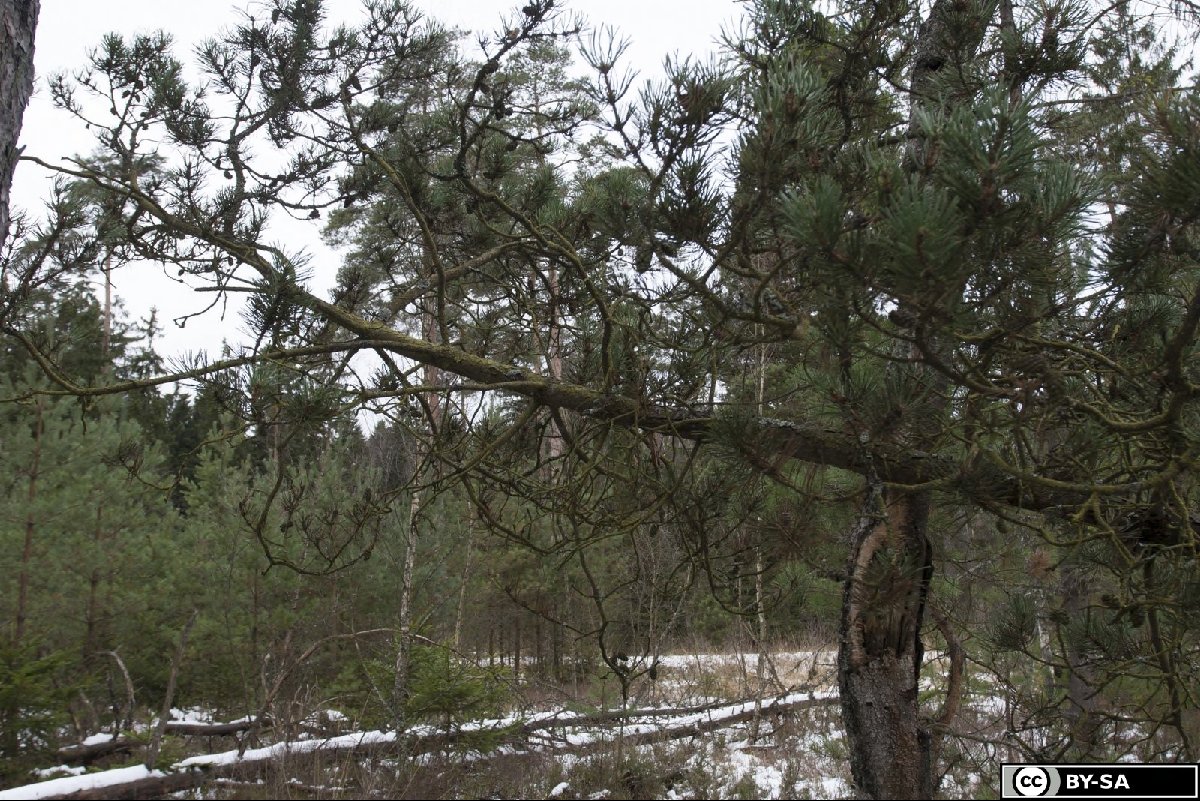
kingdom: Plantae
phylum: Tracheophyta
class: Pinopsida
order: Pinales
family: Pinaceae
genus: Pinus
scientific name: Pinus mugo
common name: Mugo pine
